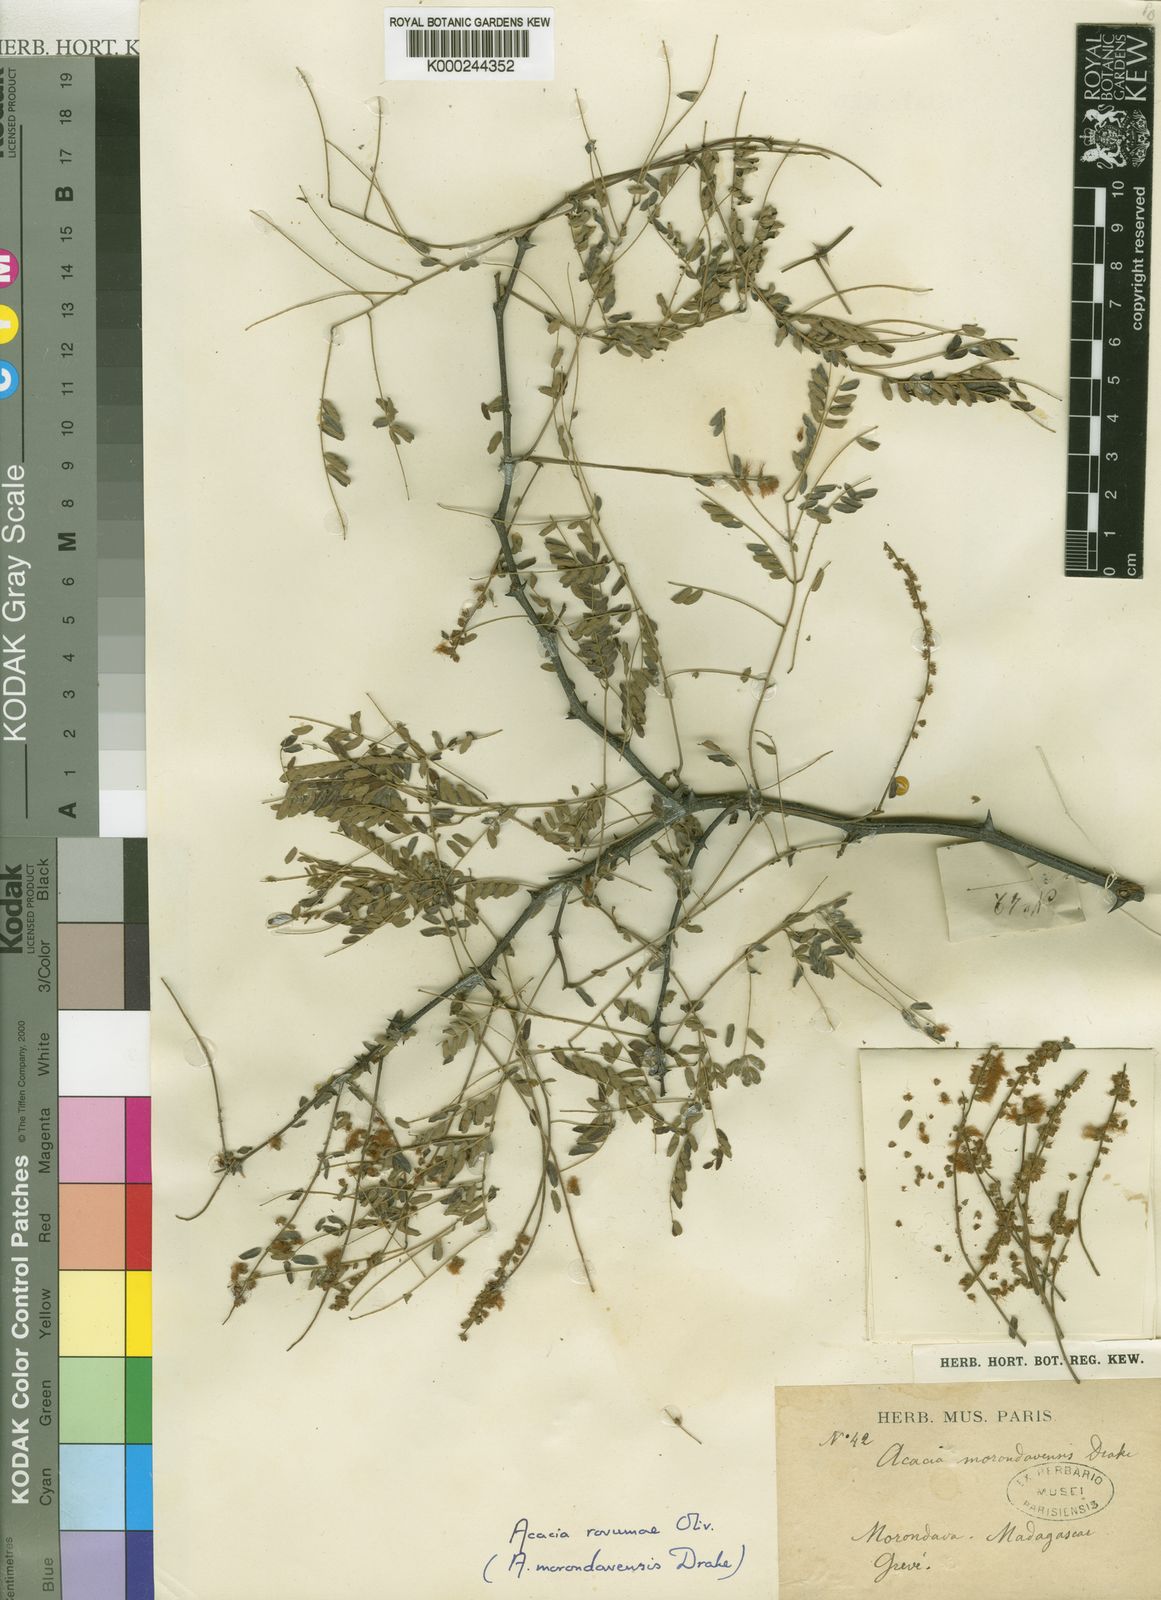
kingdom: Plantae
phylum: Tracheophyta
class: Magnoliopsida
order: Fabales
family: Fabaceae
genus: Senegalia
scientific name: Senegalia rovumae
